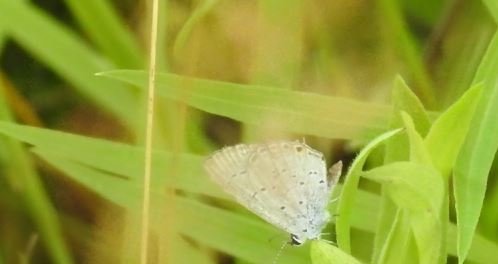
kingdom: Animalia
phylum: Arthropoda
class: Insecta
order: Lepidoptera
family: Lycaenidae
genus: Elkalyce
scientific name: Elkalyce comyntas
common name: Eastern Tailed-Blue
